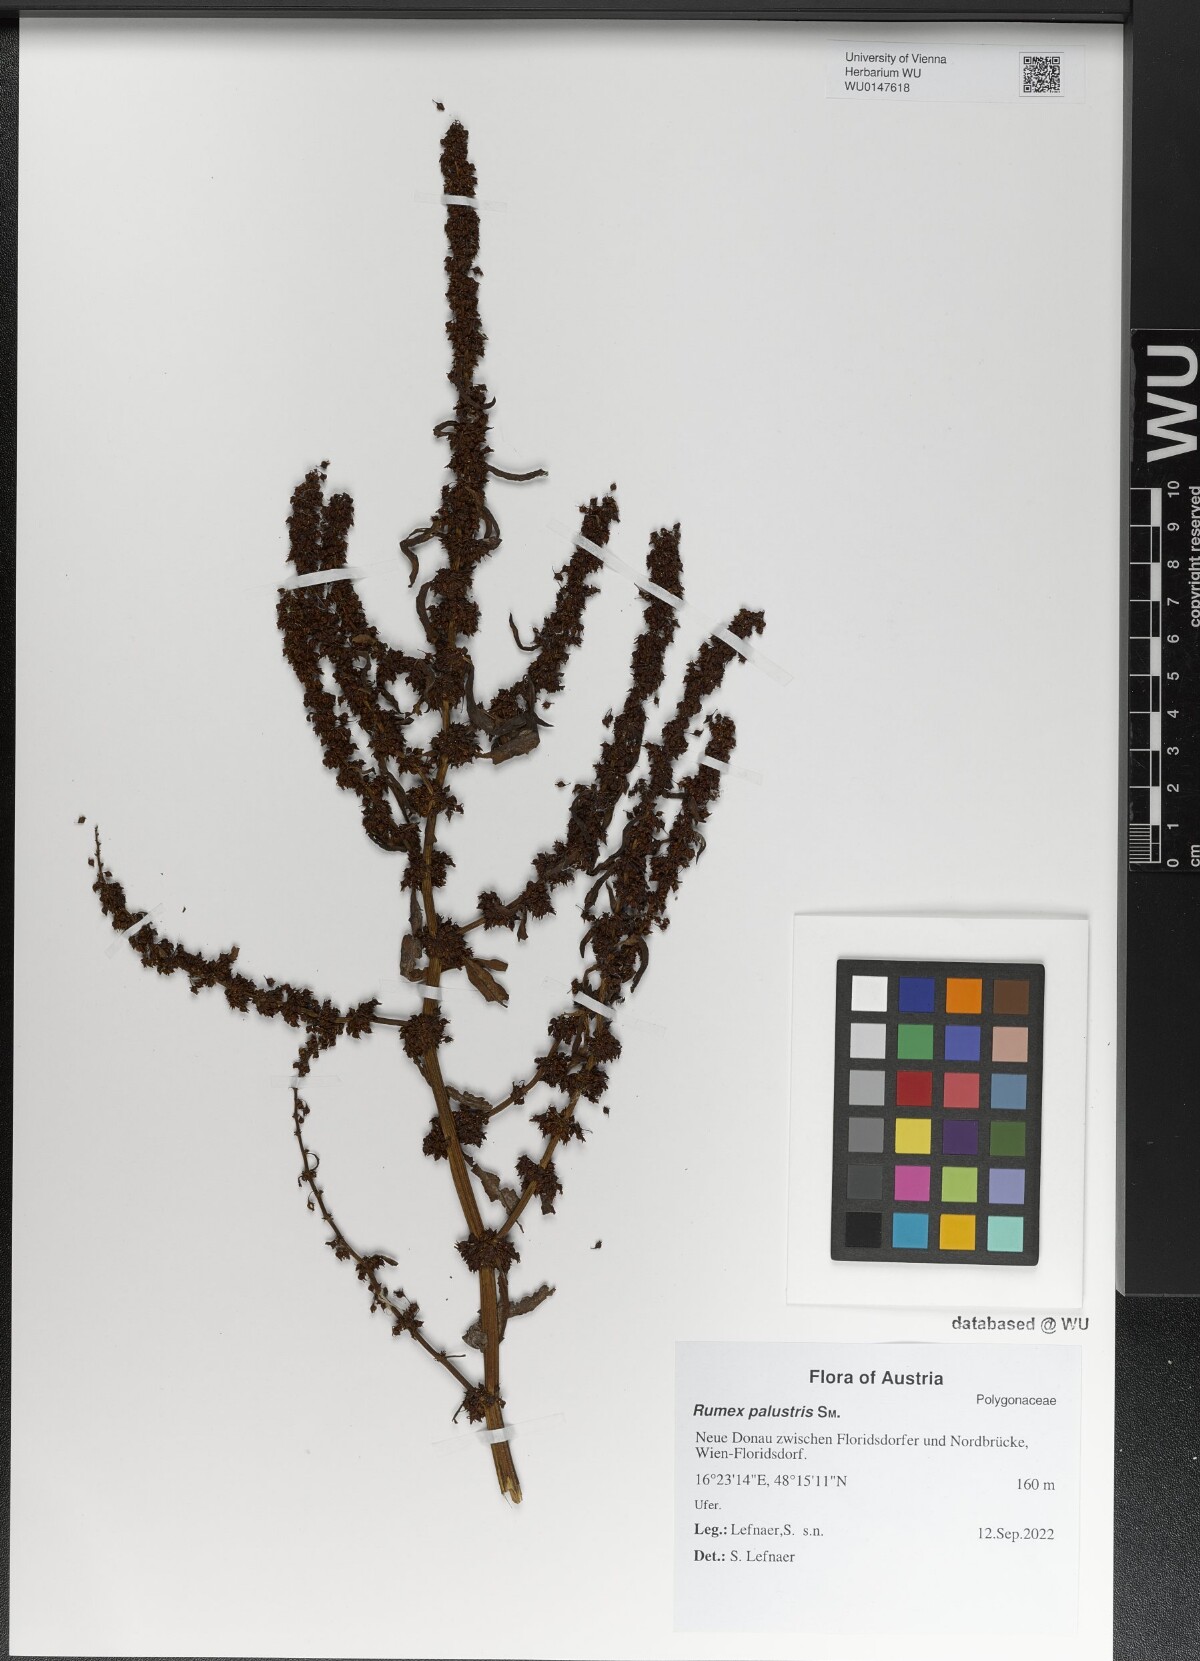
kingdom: Plantae
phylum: Tracheophyta
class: Magnoliopsida
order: Caryophyllales
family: Polygonaceae
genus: Rumex
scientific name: Rumex palustris
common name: Marsh dock
